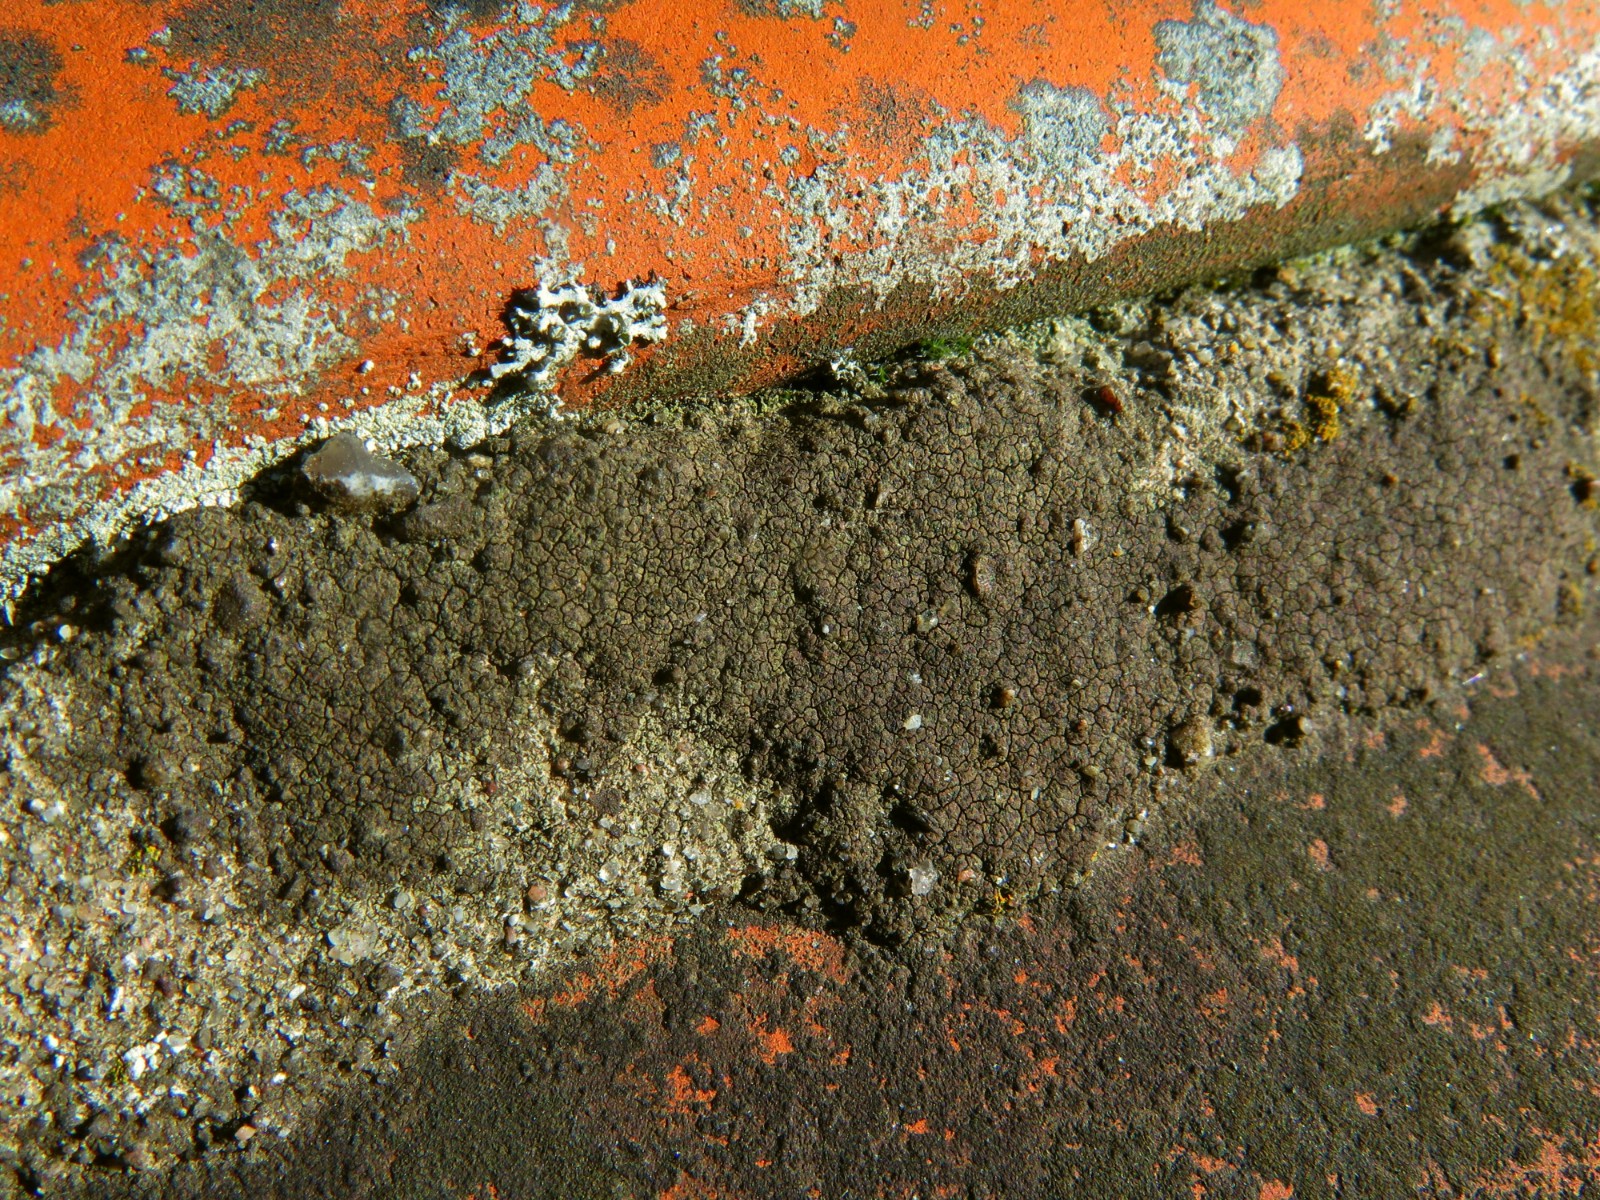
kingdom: Fungi
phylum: Ascomycota
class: Eurotiomycetes
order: Verrucariales
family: Verrucariaceae
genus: Verrucaria
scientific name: Verrucaria nigrescens
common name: sortbrun vortelav
